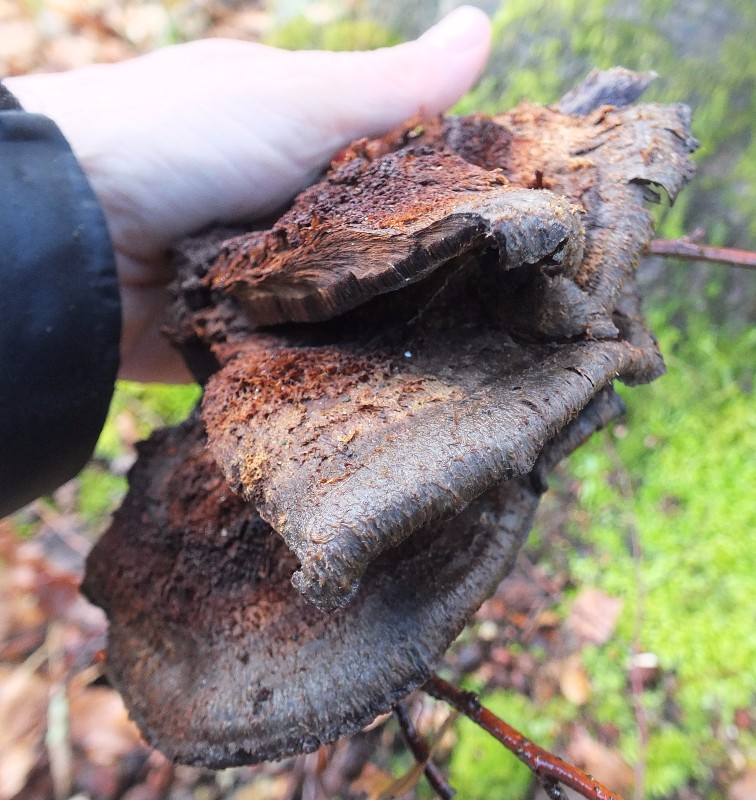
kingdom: Fungi
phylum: Basidiomycota
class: Agaricomycetes
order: Hymenochaetales
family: Hymenochaetaceae
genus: Inonotus
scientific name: Inonotus cuticularis
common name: kroghåret spejlporesvamp
